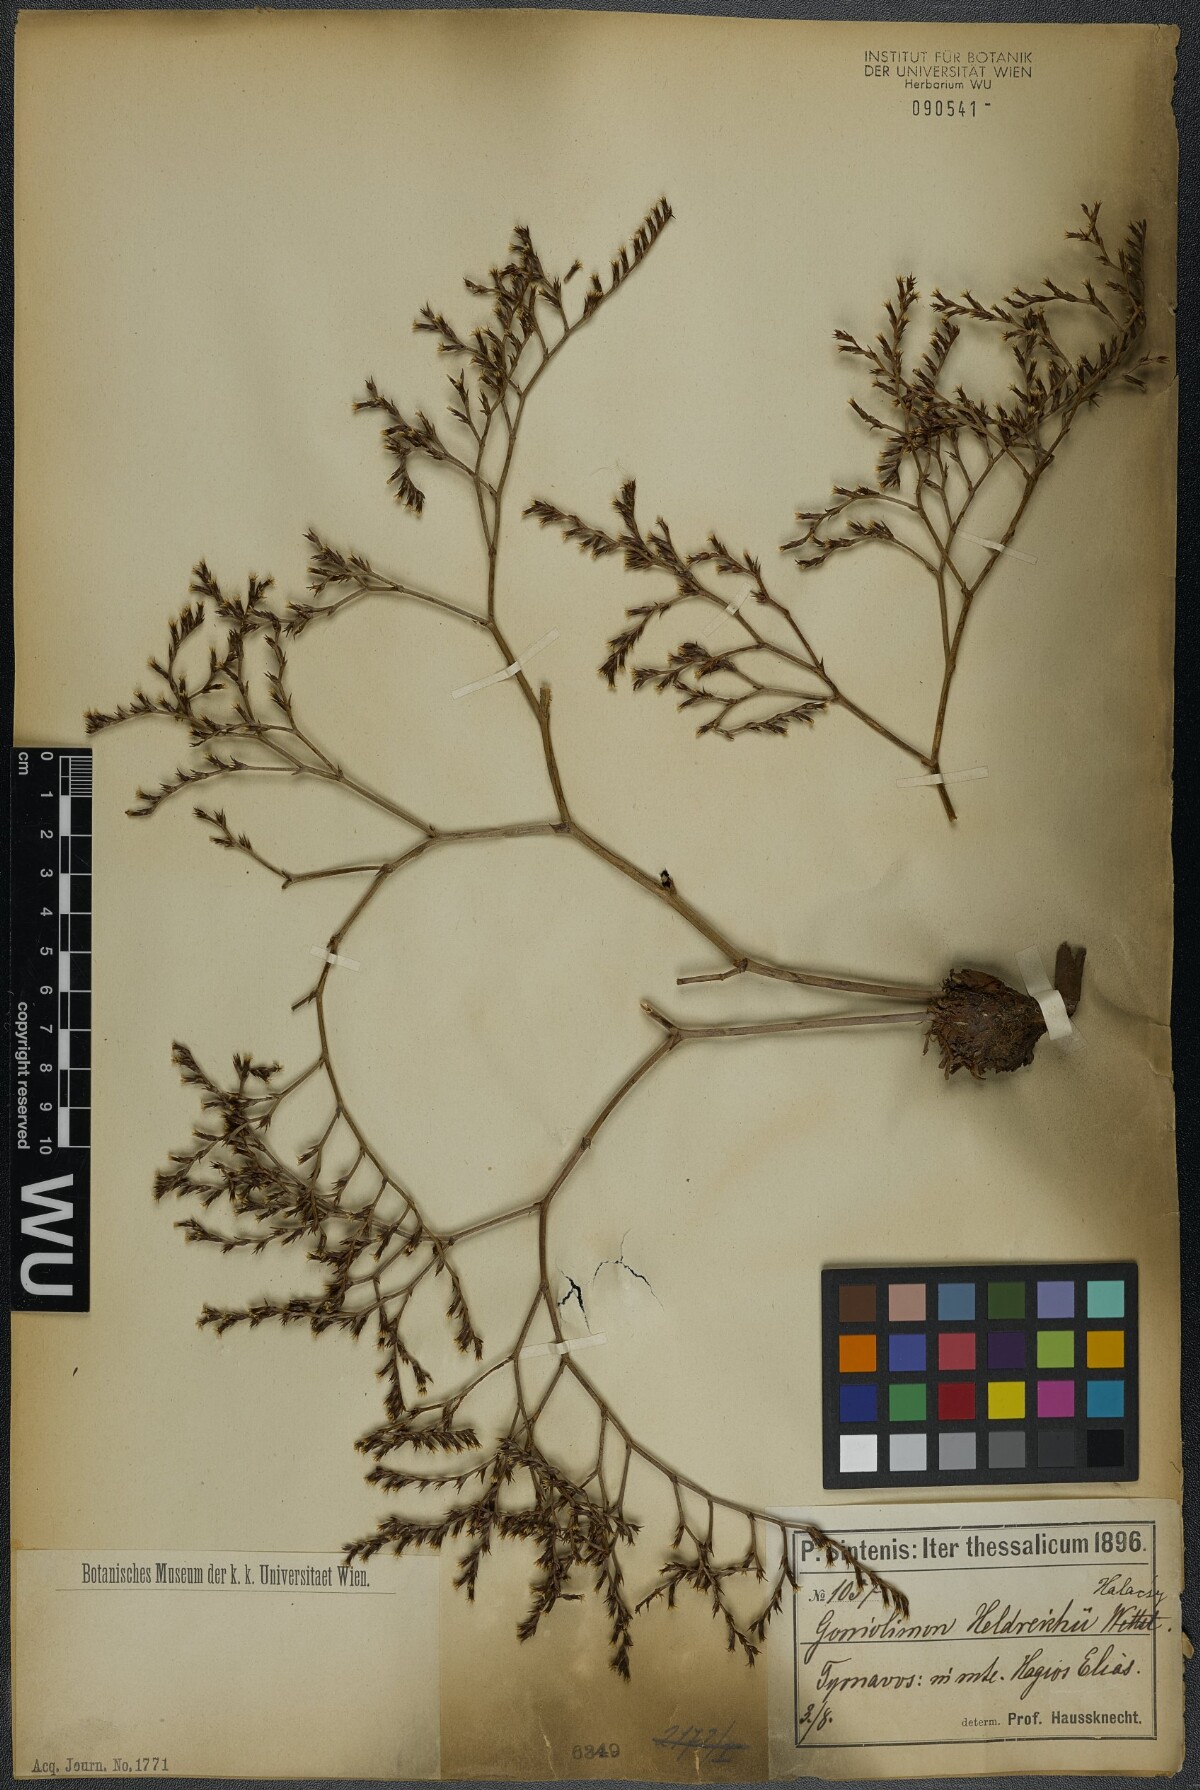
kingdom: Plantae
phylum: Tracheophyta
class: Magnoliopsida
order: Caryophyllales
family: Plumbaginaceae
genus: Goniolimon
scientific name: Goniolimon heldreichii
